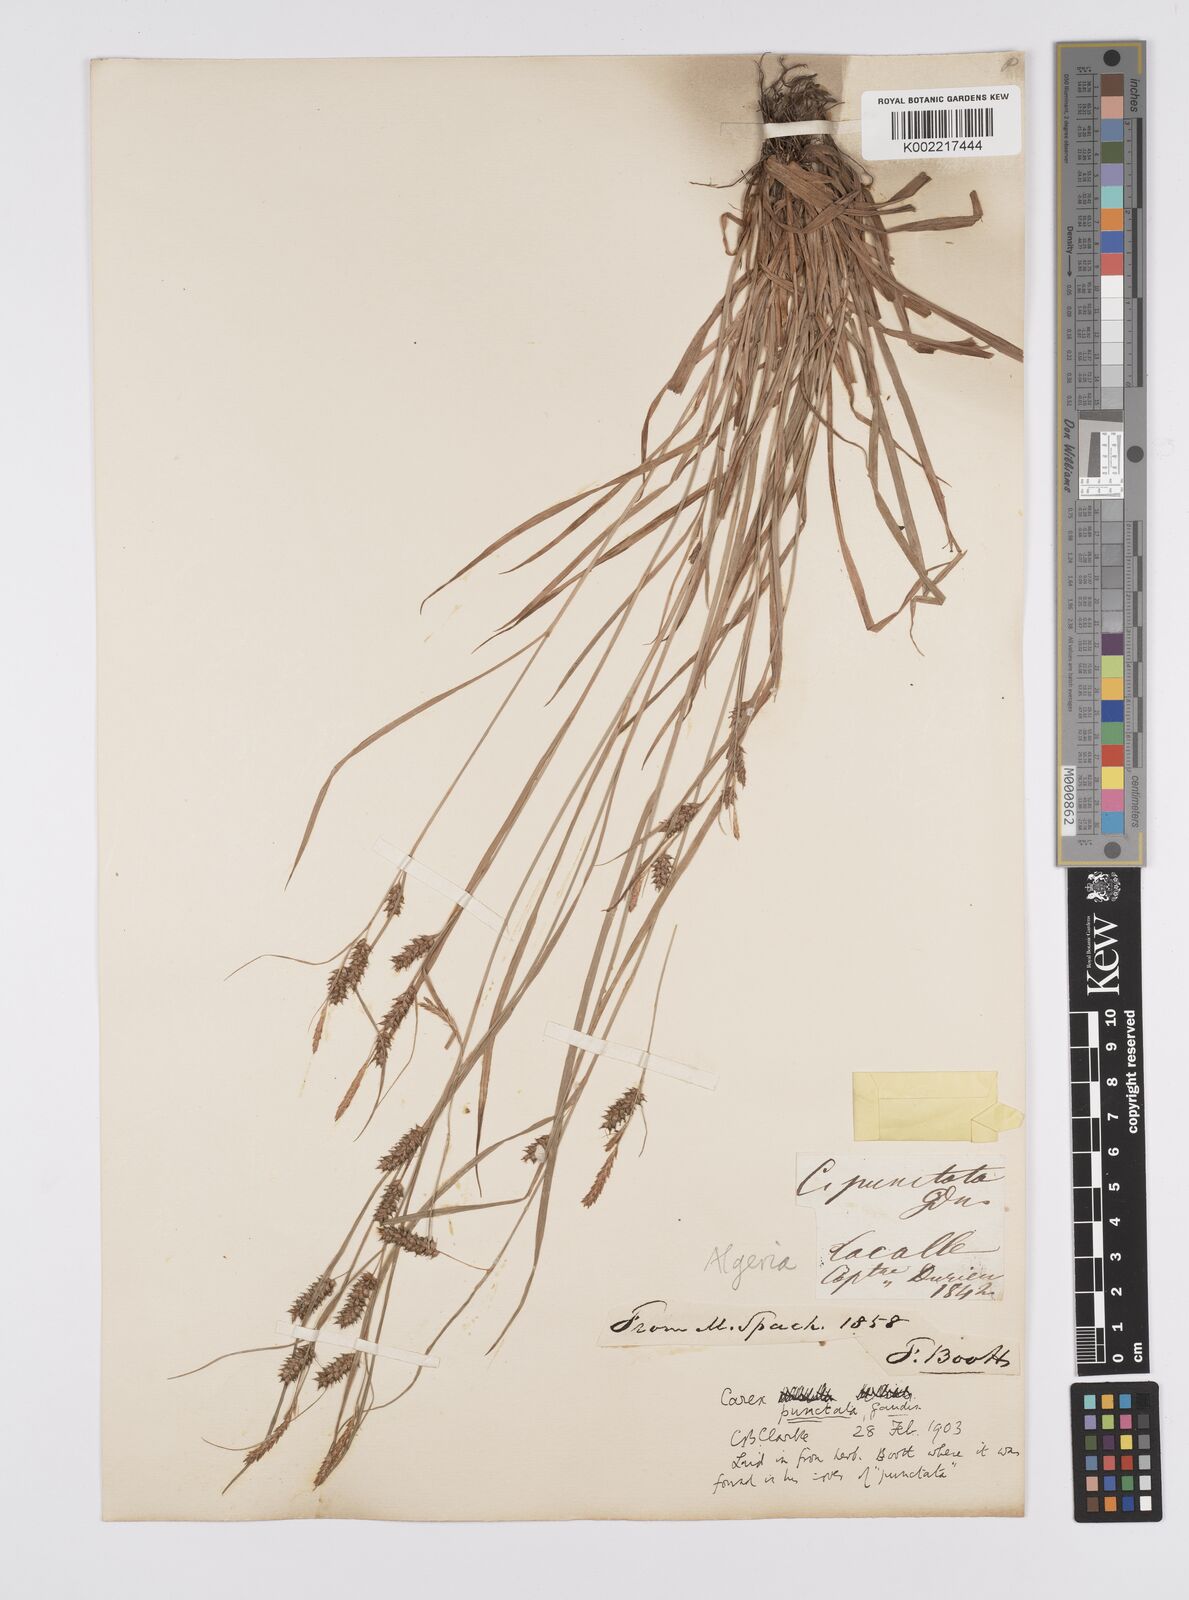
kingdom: Plantae
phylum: Tracheophyta
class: Liliopsida
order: Poales
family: Cyperaceae
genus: Carex
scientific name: Carex punctata
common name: Dotted sedge
